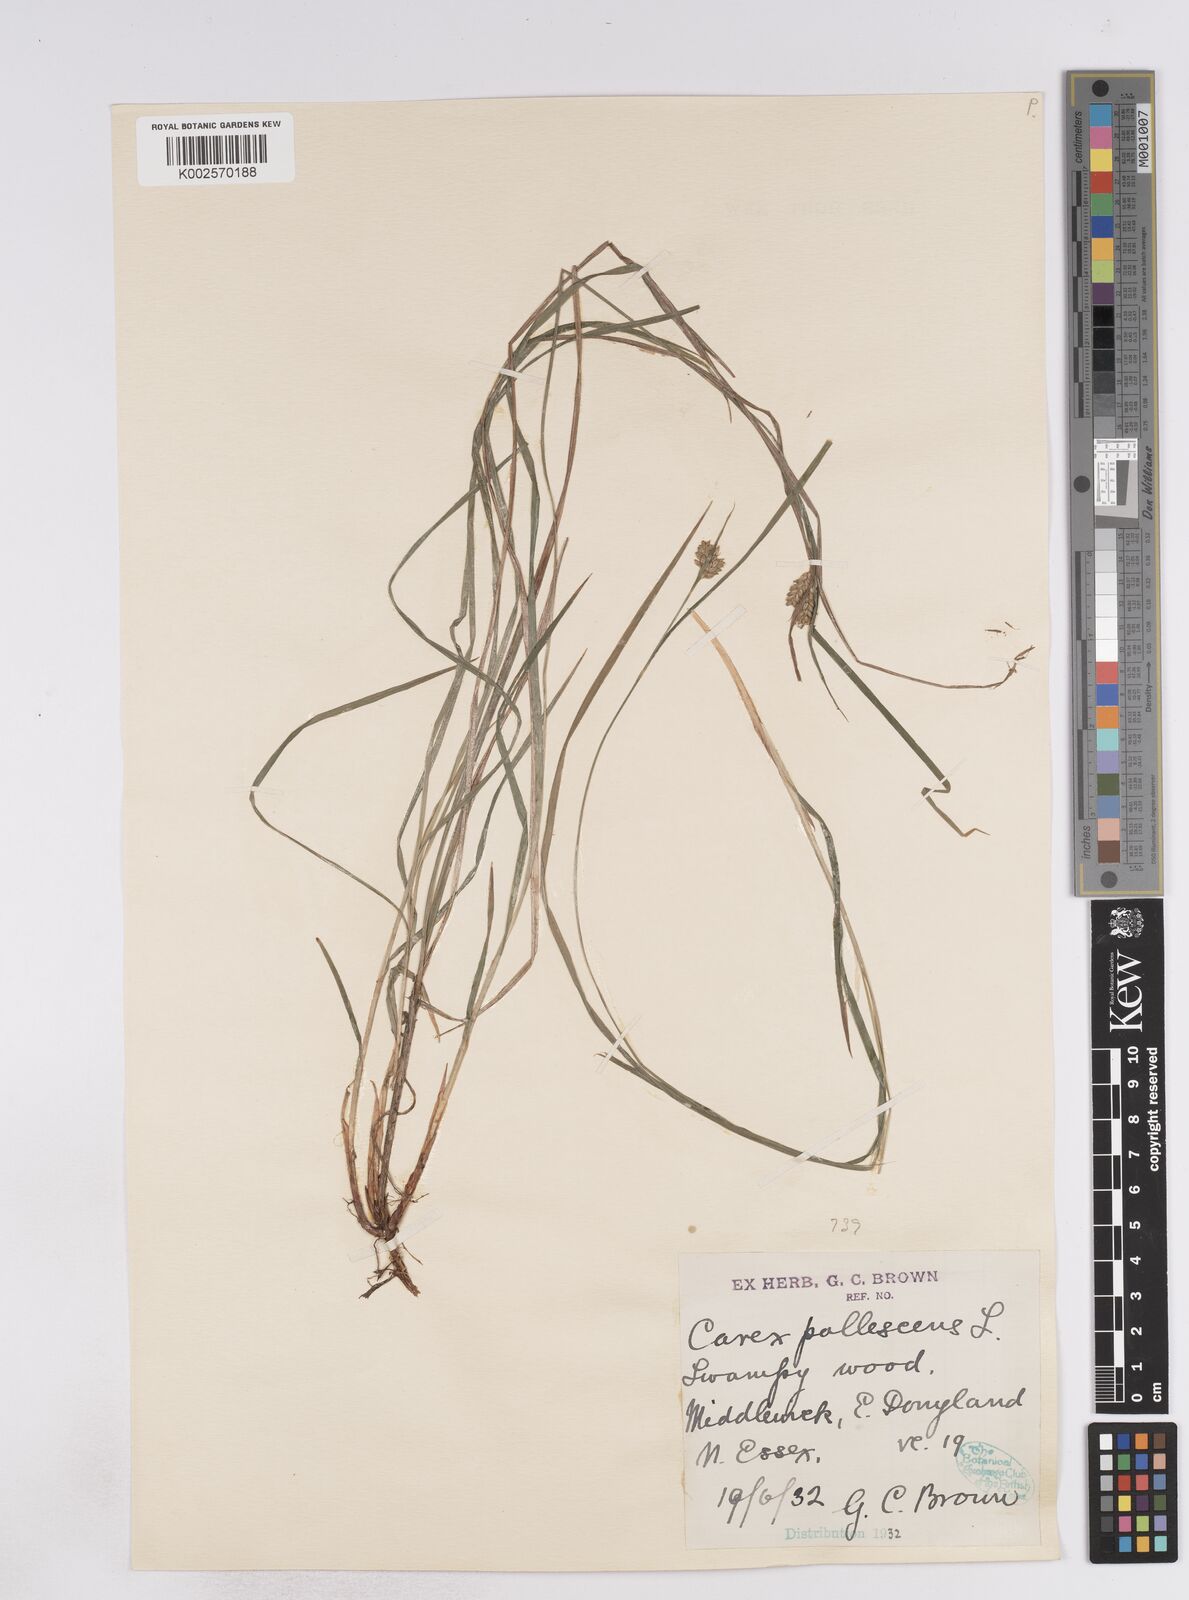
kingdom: Plantae
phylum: Tracheophyta
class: Liliopsida
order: Poales
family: Cyperaceae
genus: Carex
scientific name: Carex pallescens
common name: Pale sedge
